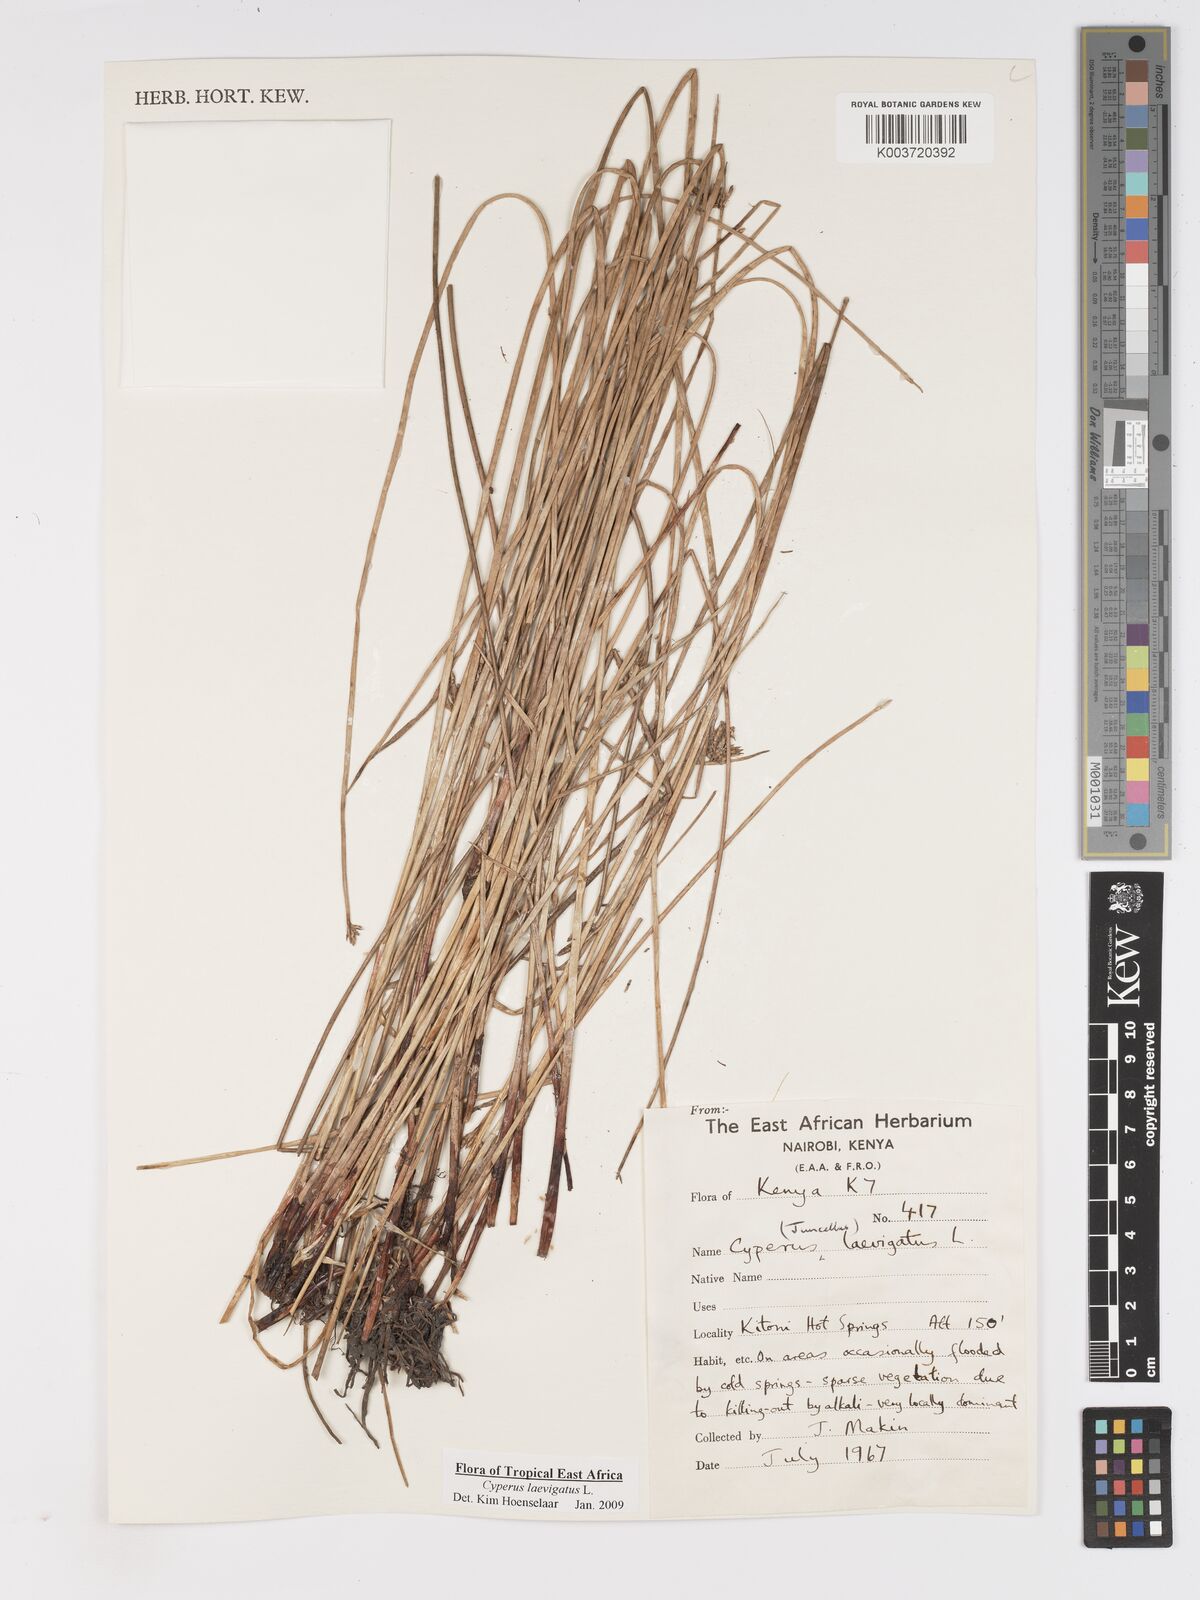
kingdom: Plantae
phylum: Tracheophyta
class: Liliopsida
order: Poales
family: Cyperaceae
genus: Cyperus
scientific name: Cyperus laevigatus
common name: Smooth flat sedge
